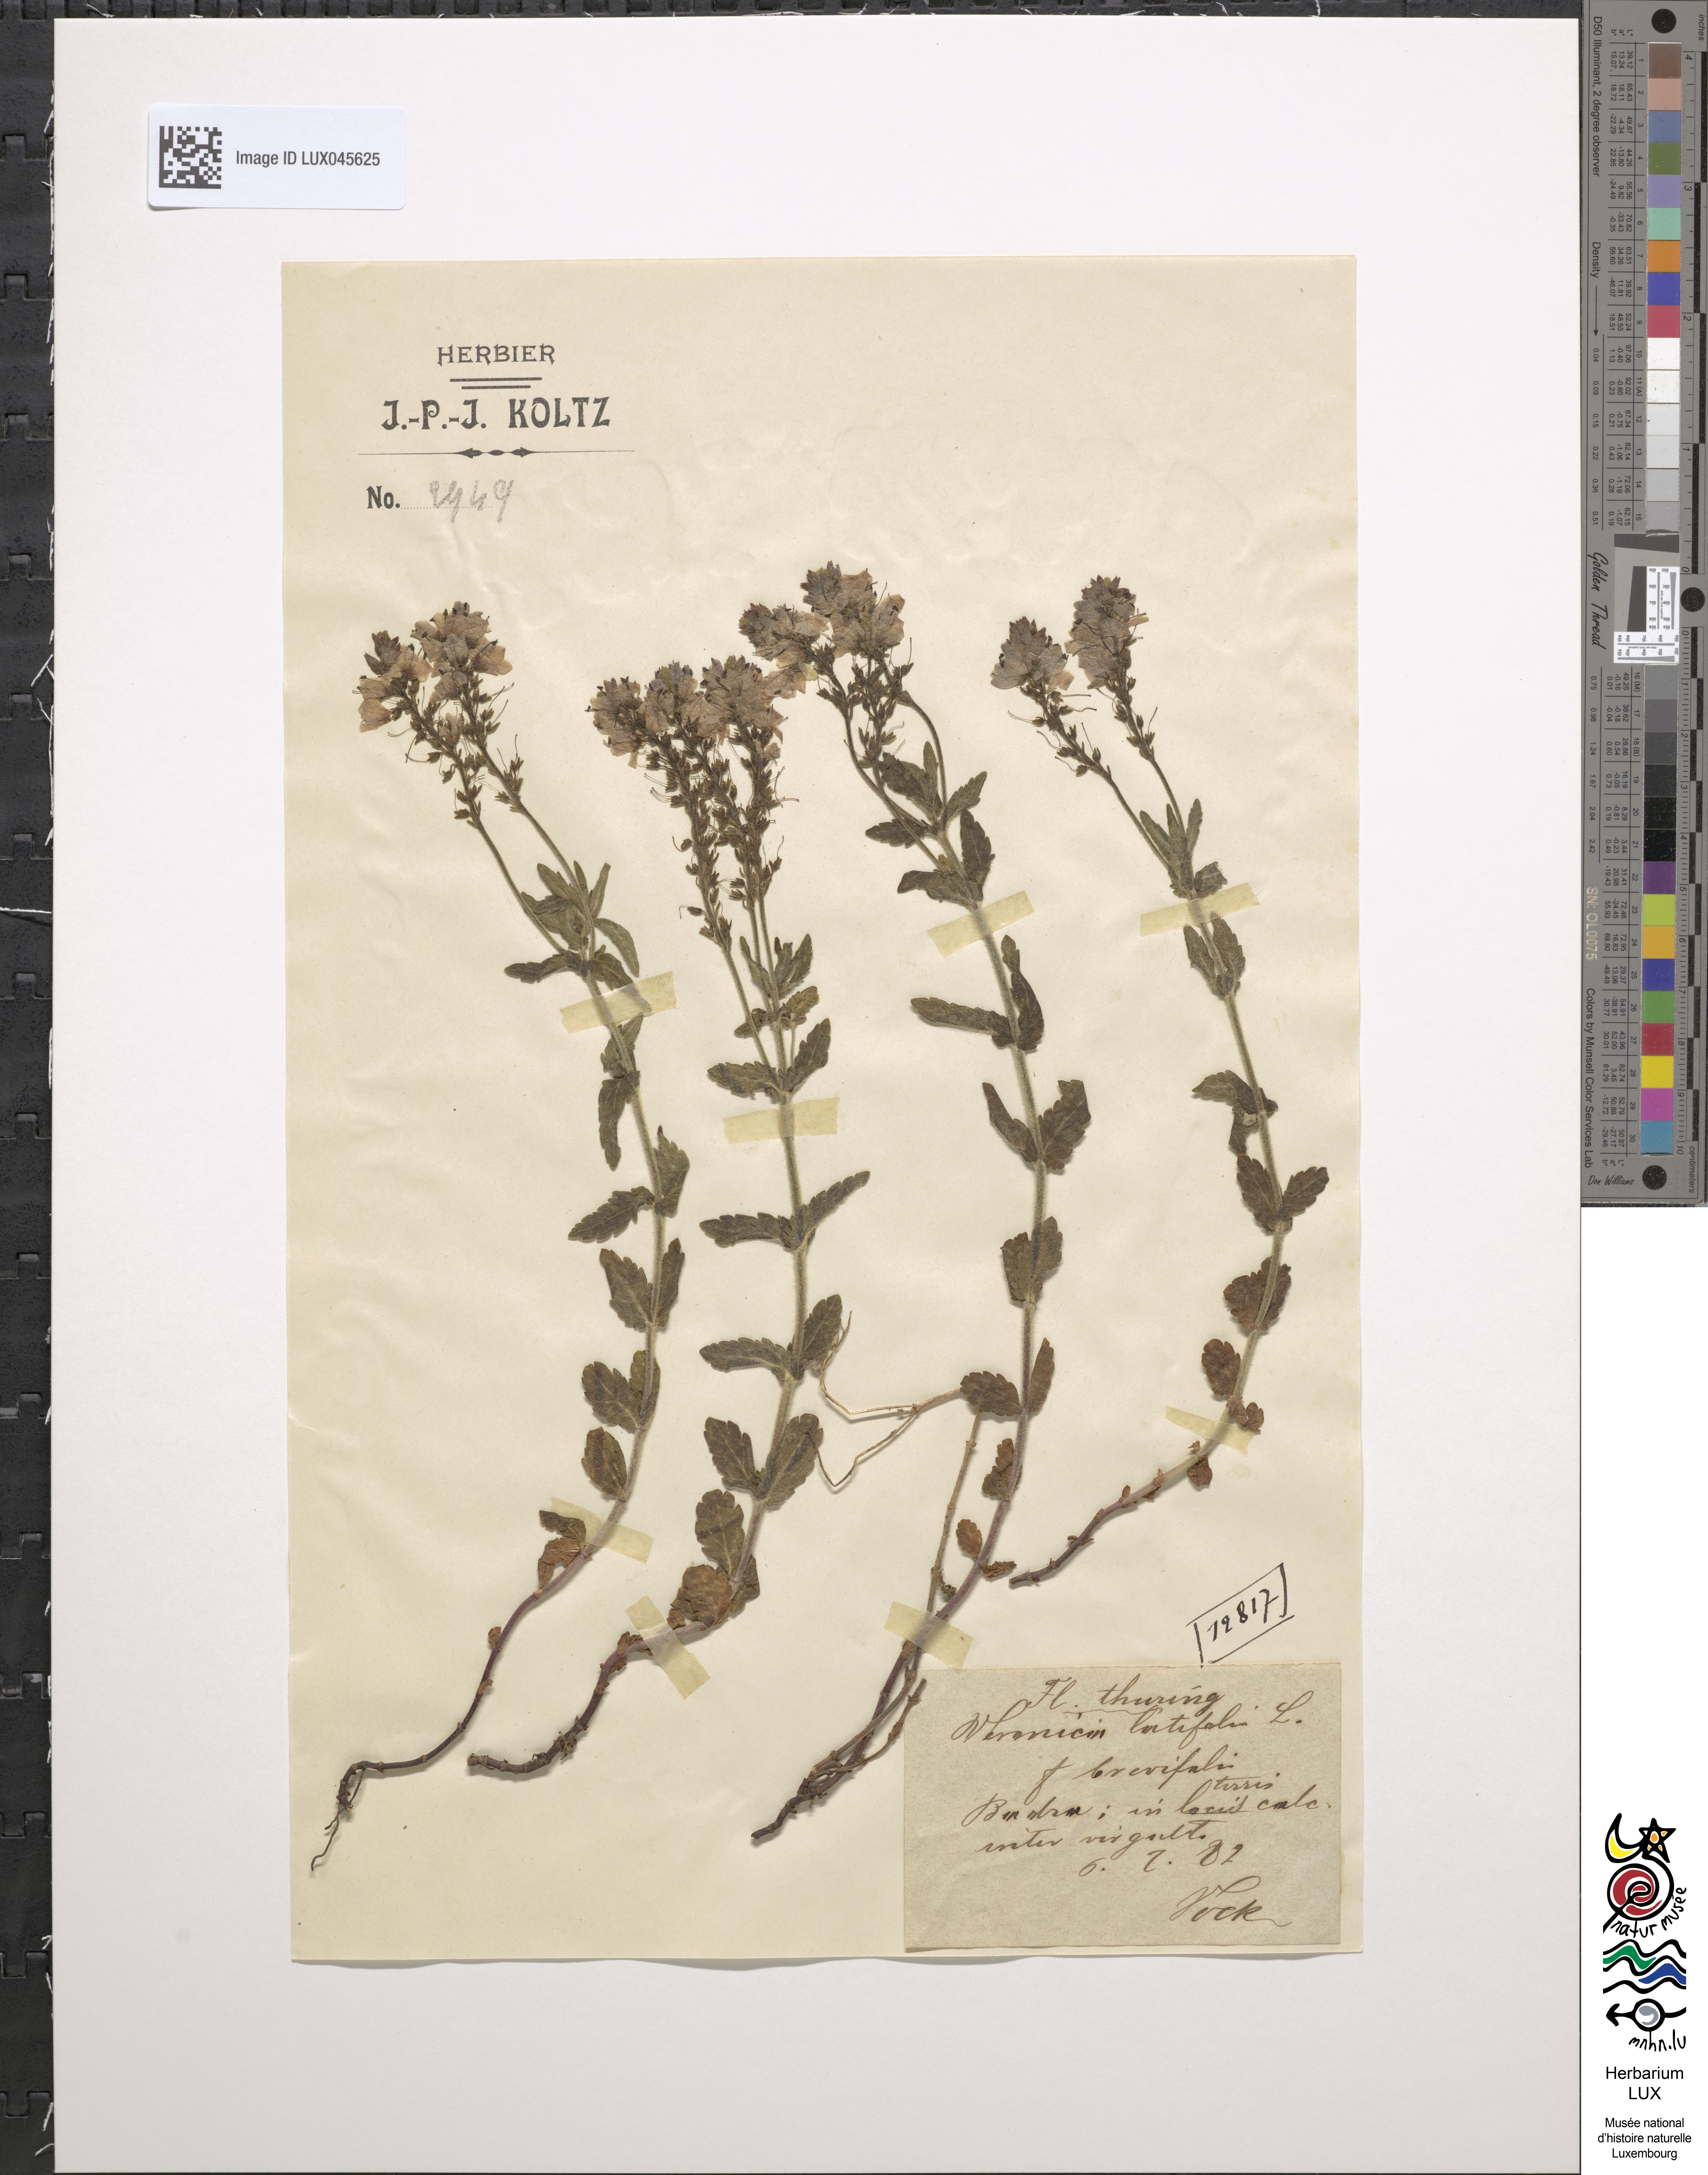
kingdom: Plantae
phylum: Tracheophyta
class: Magnoliopsida
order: Lamiales
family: Plantaginaceae
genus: Veronica
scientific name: Veronica urticifolia
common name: Nettle-leaf speedwell
